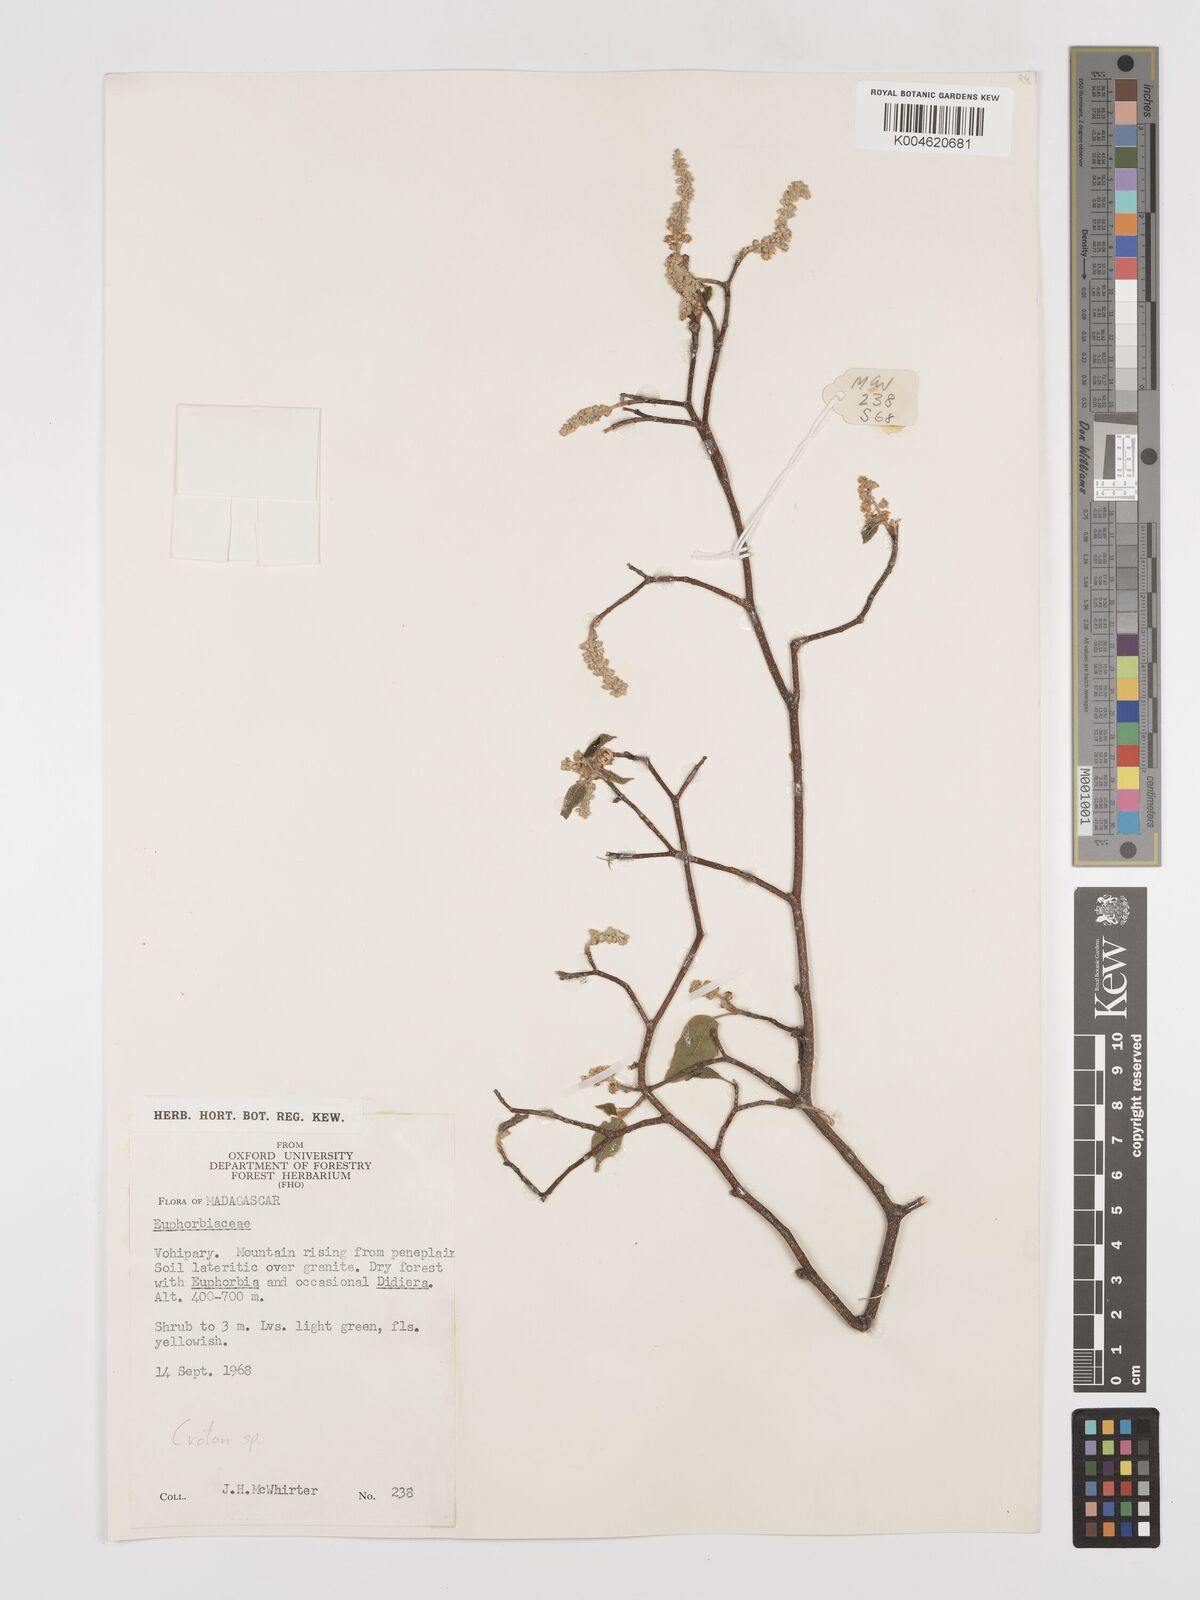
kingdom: Plantae
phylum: Tracheophyta
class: Magnoliopsida
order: Malpighiales
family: Euphorbiaceae
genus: Croton
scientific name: Croton
